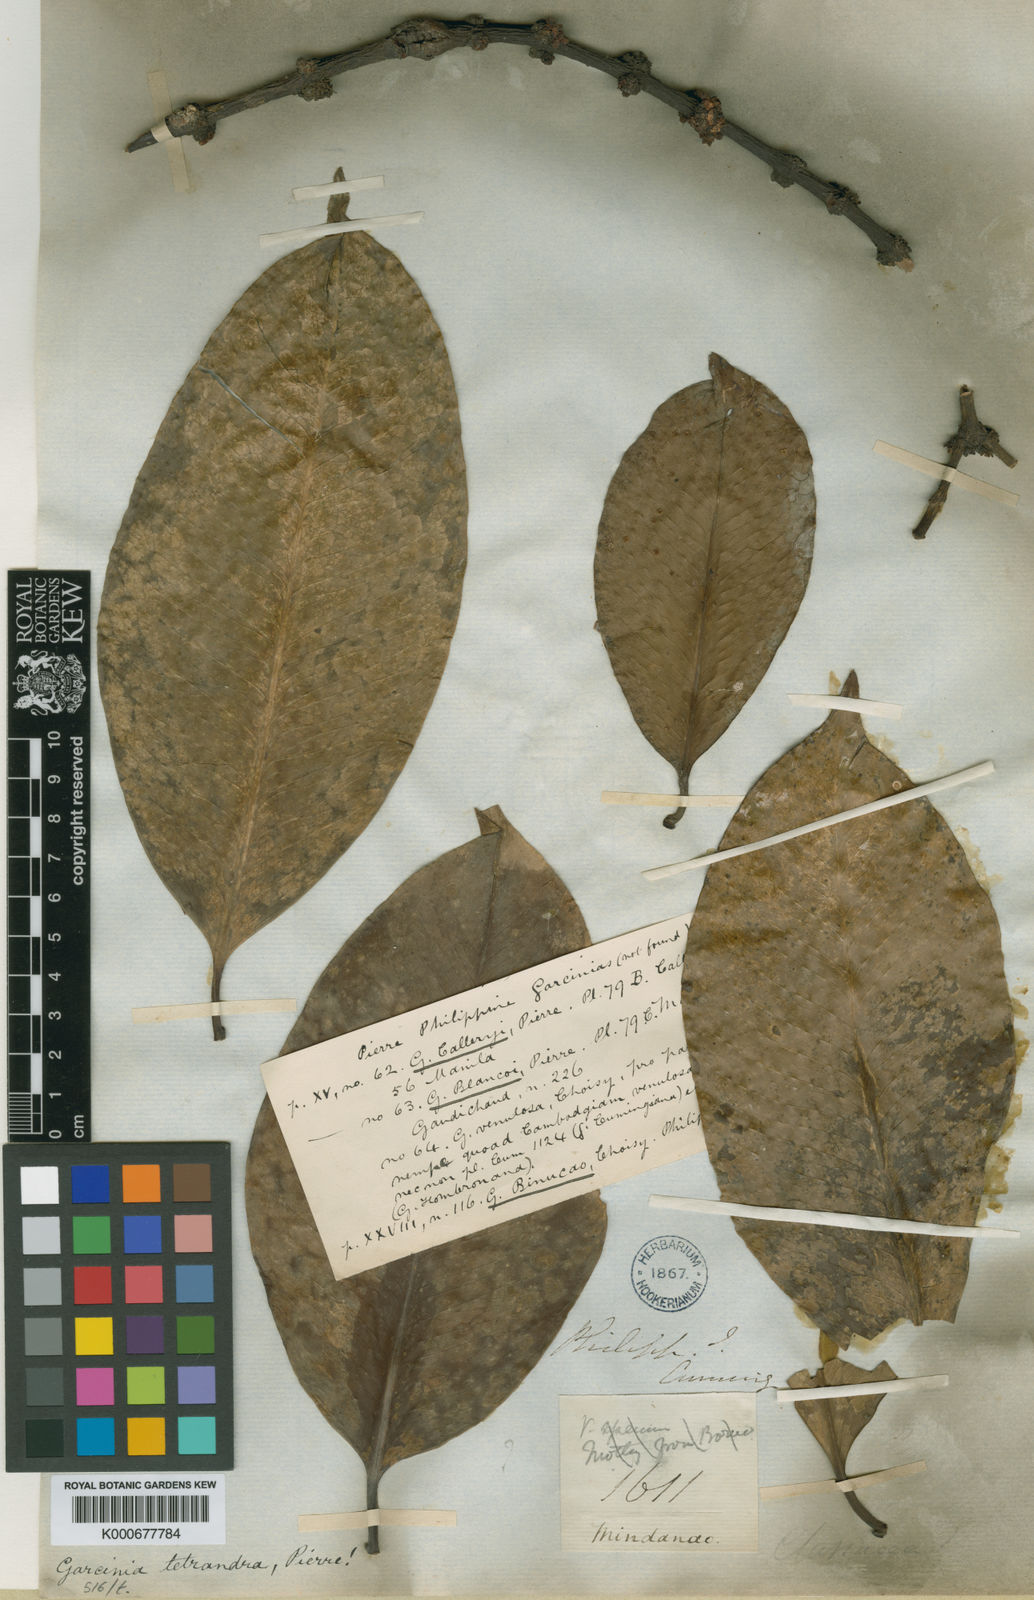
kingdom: Plantae
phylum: Tracheophyta
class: Magnoliopsida
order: Malpighiales
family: Clusiaceae
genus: Garcinia
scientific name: Garcinia tetrandra
